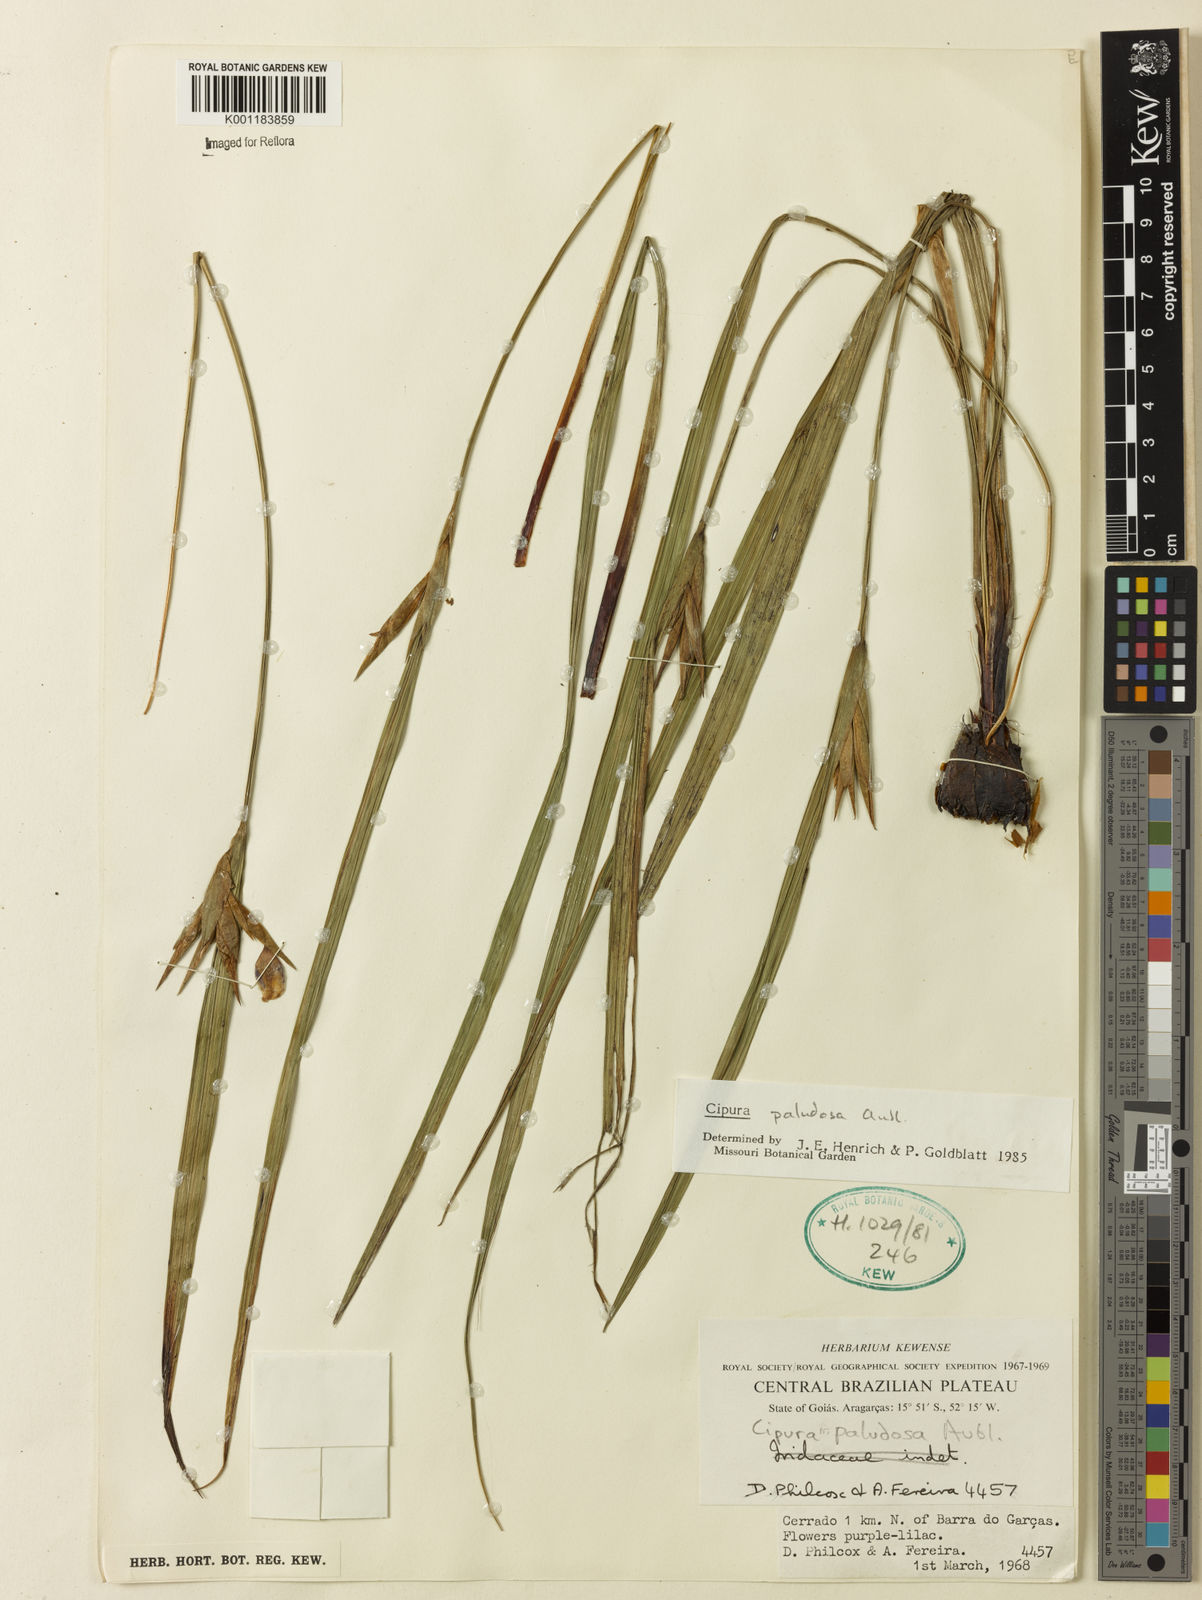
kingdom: Plantae
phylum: Tracheophyta
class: Liliopsida
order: Asparagales
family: Iridaceae
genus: Cipura
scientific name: Cipura paludosa
